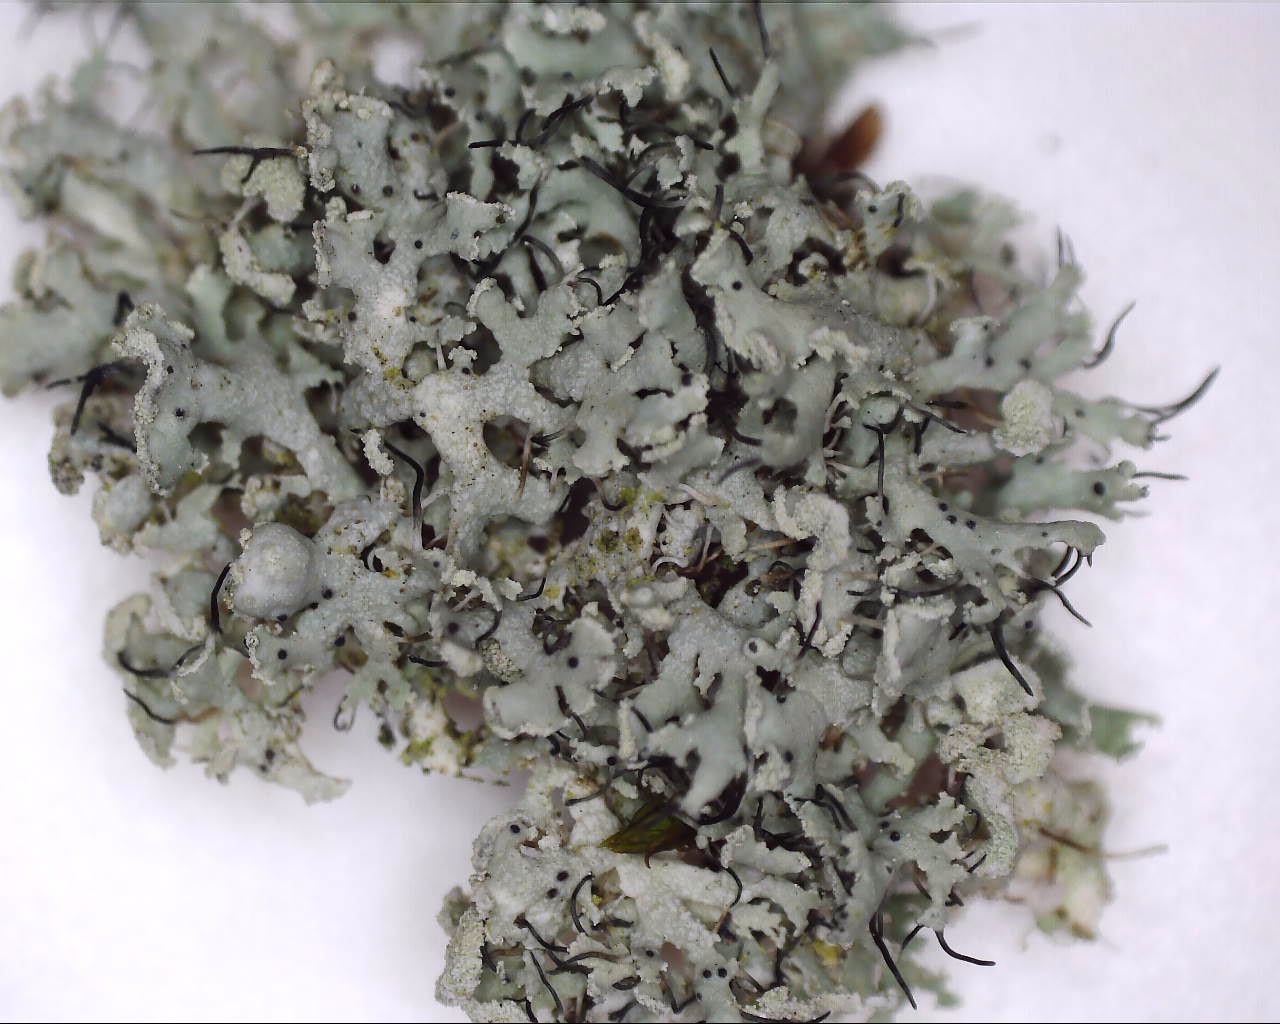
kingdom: Fungi
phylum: Ascomycota
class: Lecanoromycetes
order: Caliciales
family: Physciaceae
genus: Physcia
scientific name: Physcia tenella
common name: spæd rosetlav
